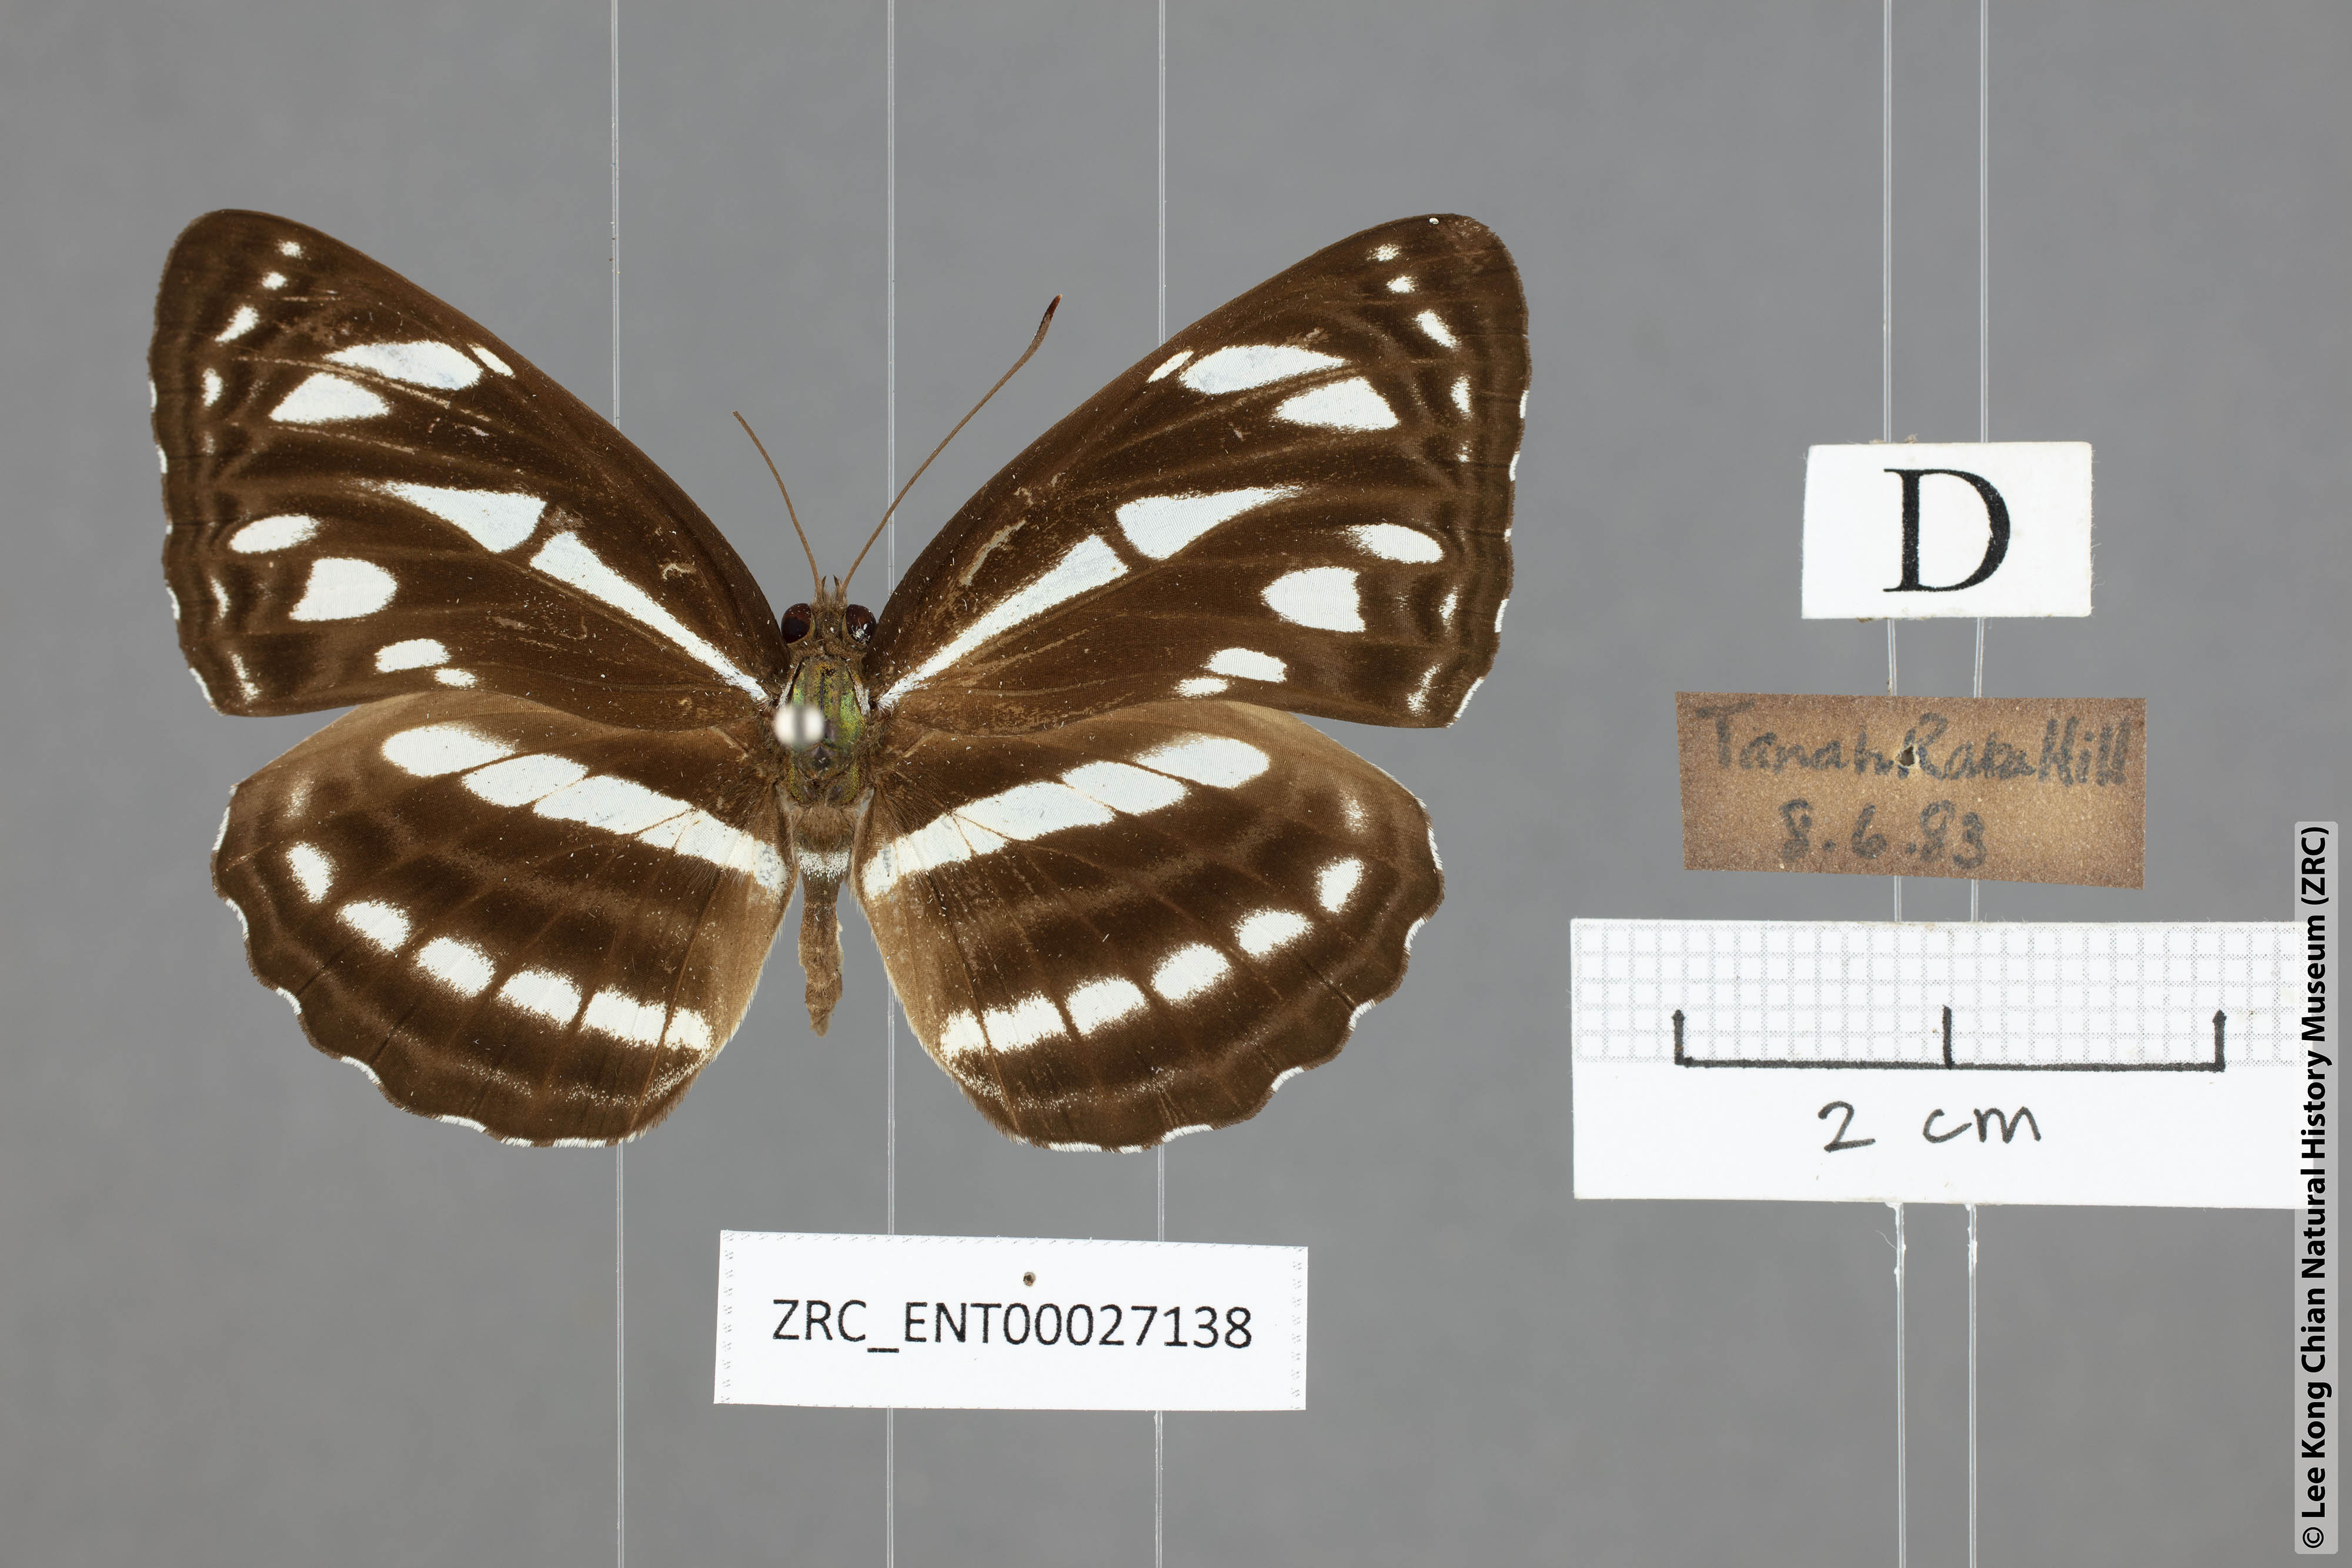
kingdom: Animalia
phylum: Arthropoda
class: Insecta
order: Lepidoptera
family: Nymphalidae
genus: Neptis
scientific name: Neptis clinioides
